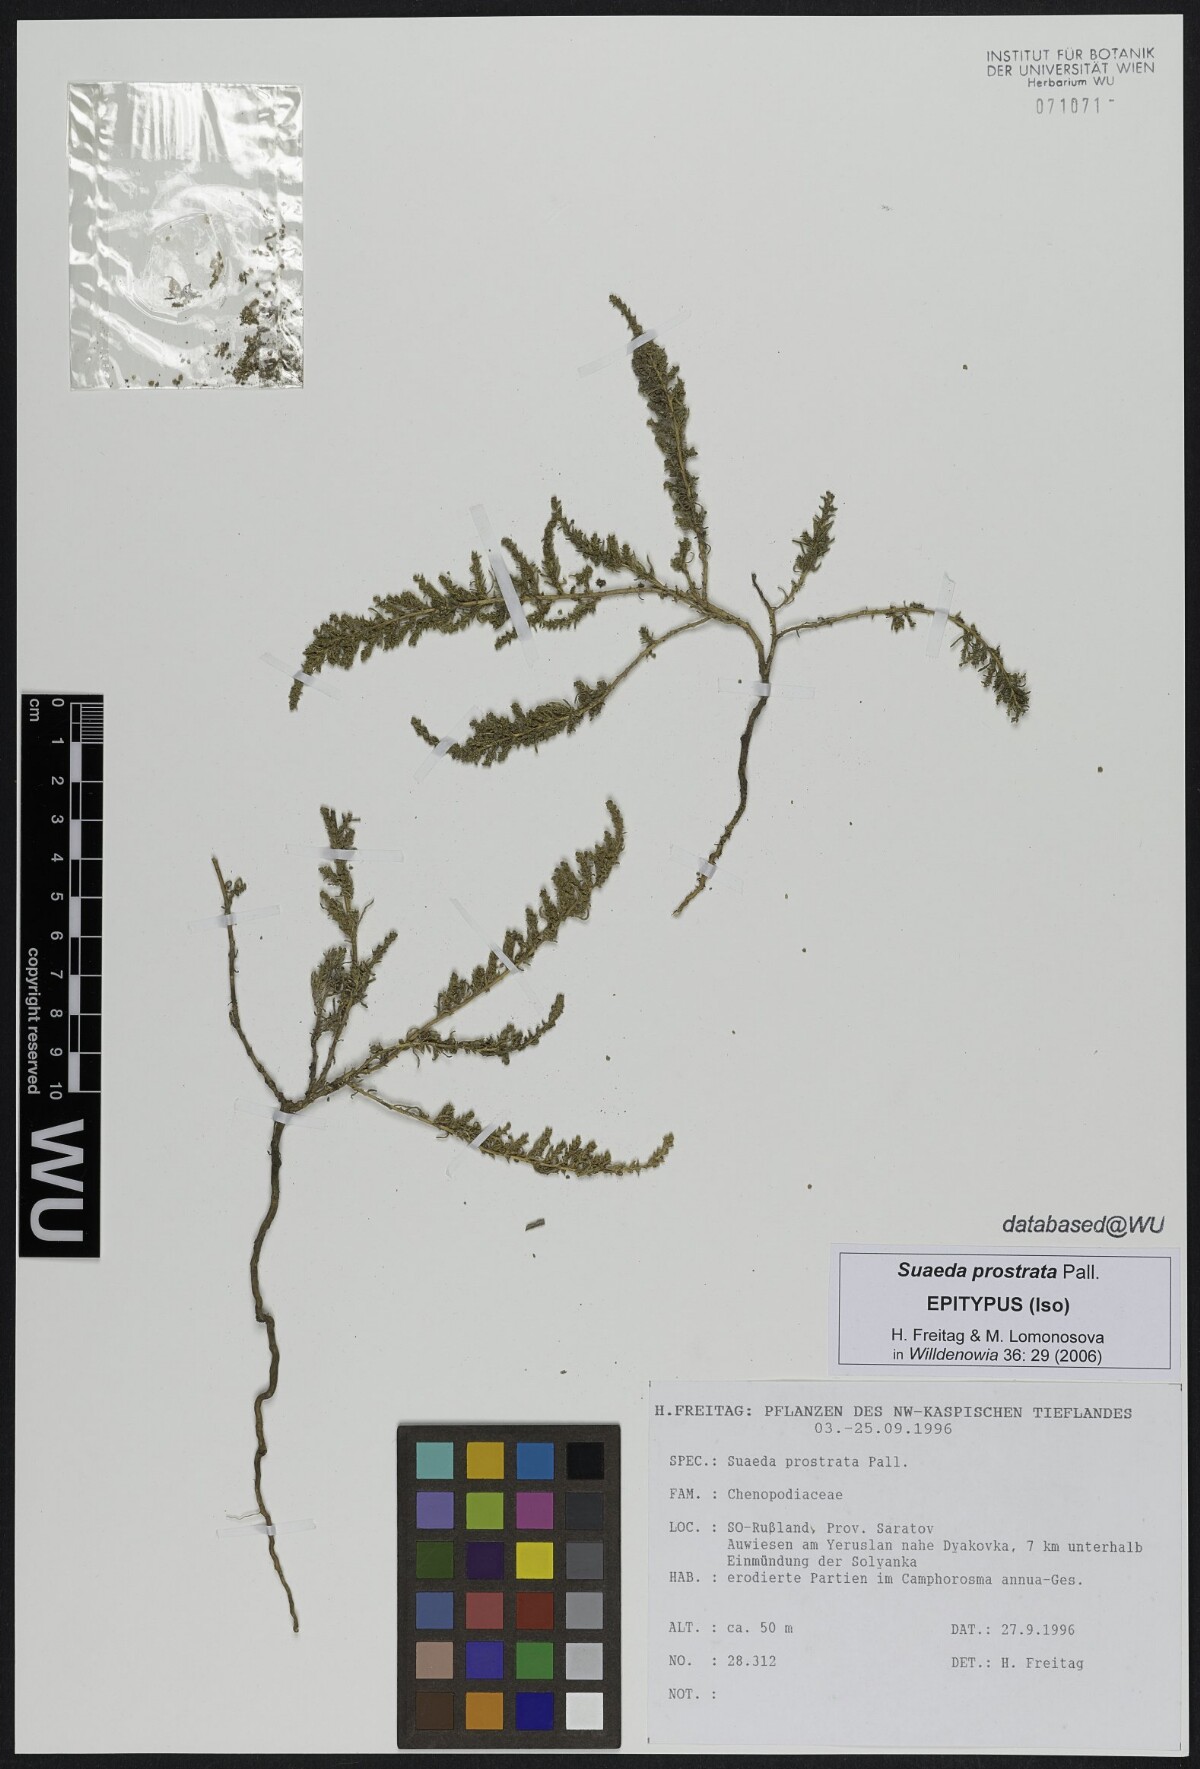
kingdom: Plantae
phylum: Tracheophyta
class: Magnoliopsida
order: Caryophyllales
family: Amaranthaceae
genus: Suaeda
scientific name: Suaeda prostrata
